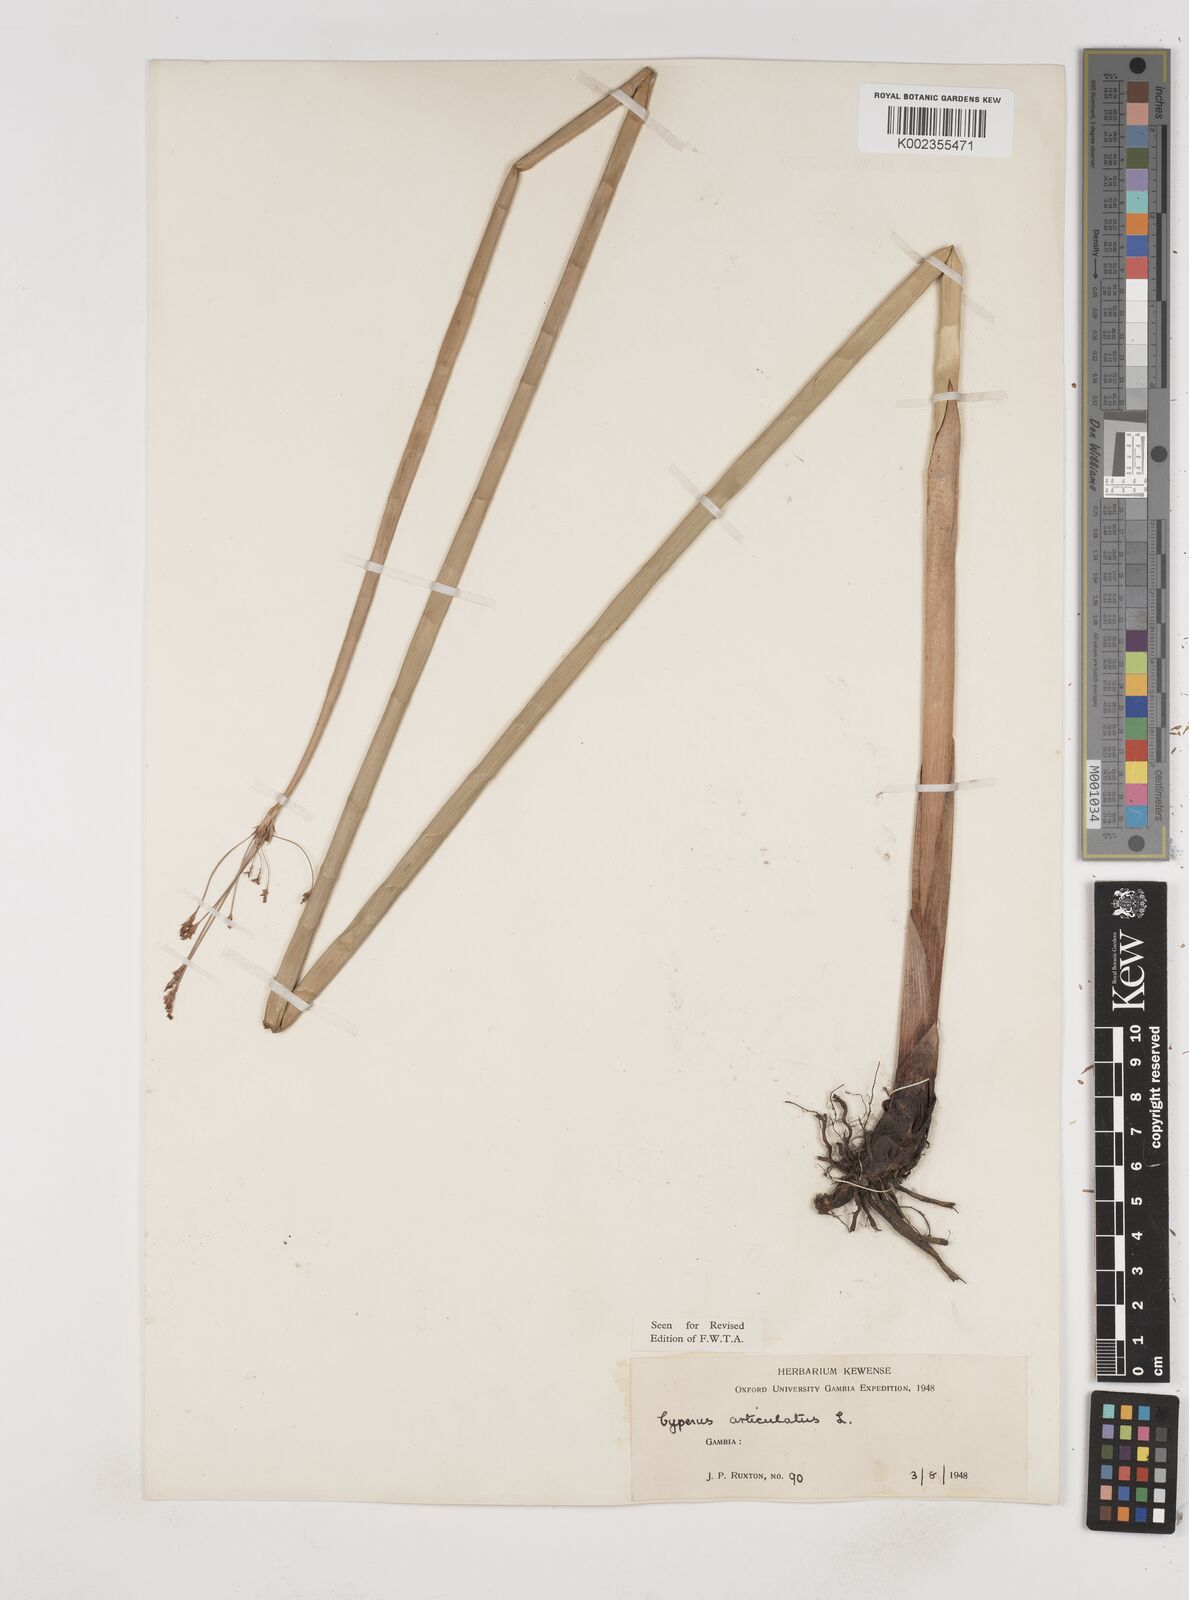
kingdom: Plantae
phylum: Tracheophyta
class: Liliopsida
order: Poales
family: Cyperaceae
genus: Cyperus
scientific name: Cyperus articulatus
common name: Jointed flatsedge
